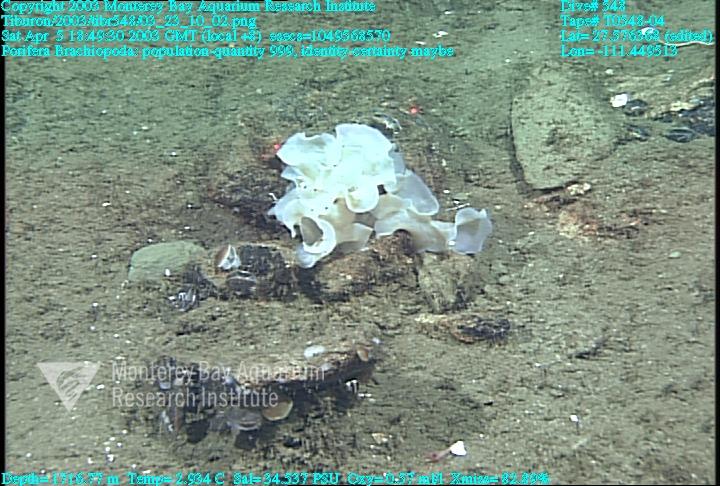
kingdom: Animalia
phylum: Porifera
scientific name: Porifera
